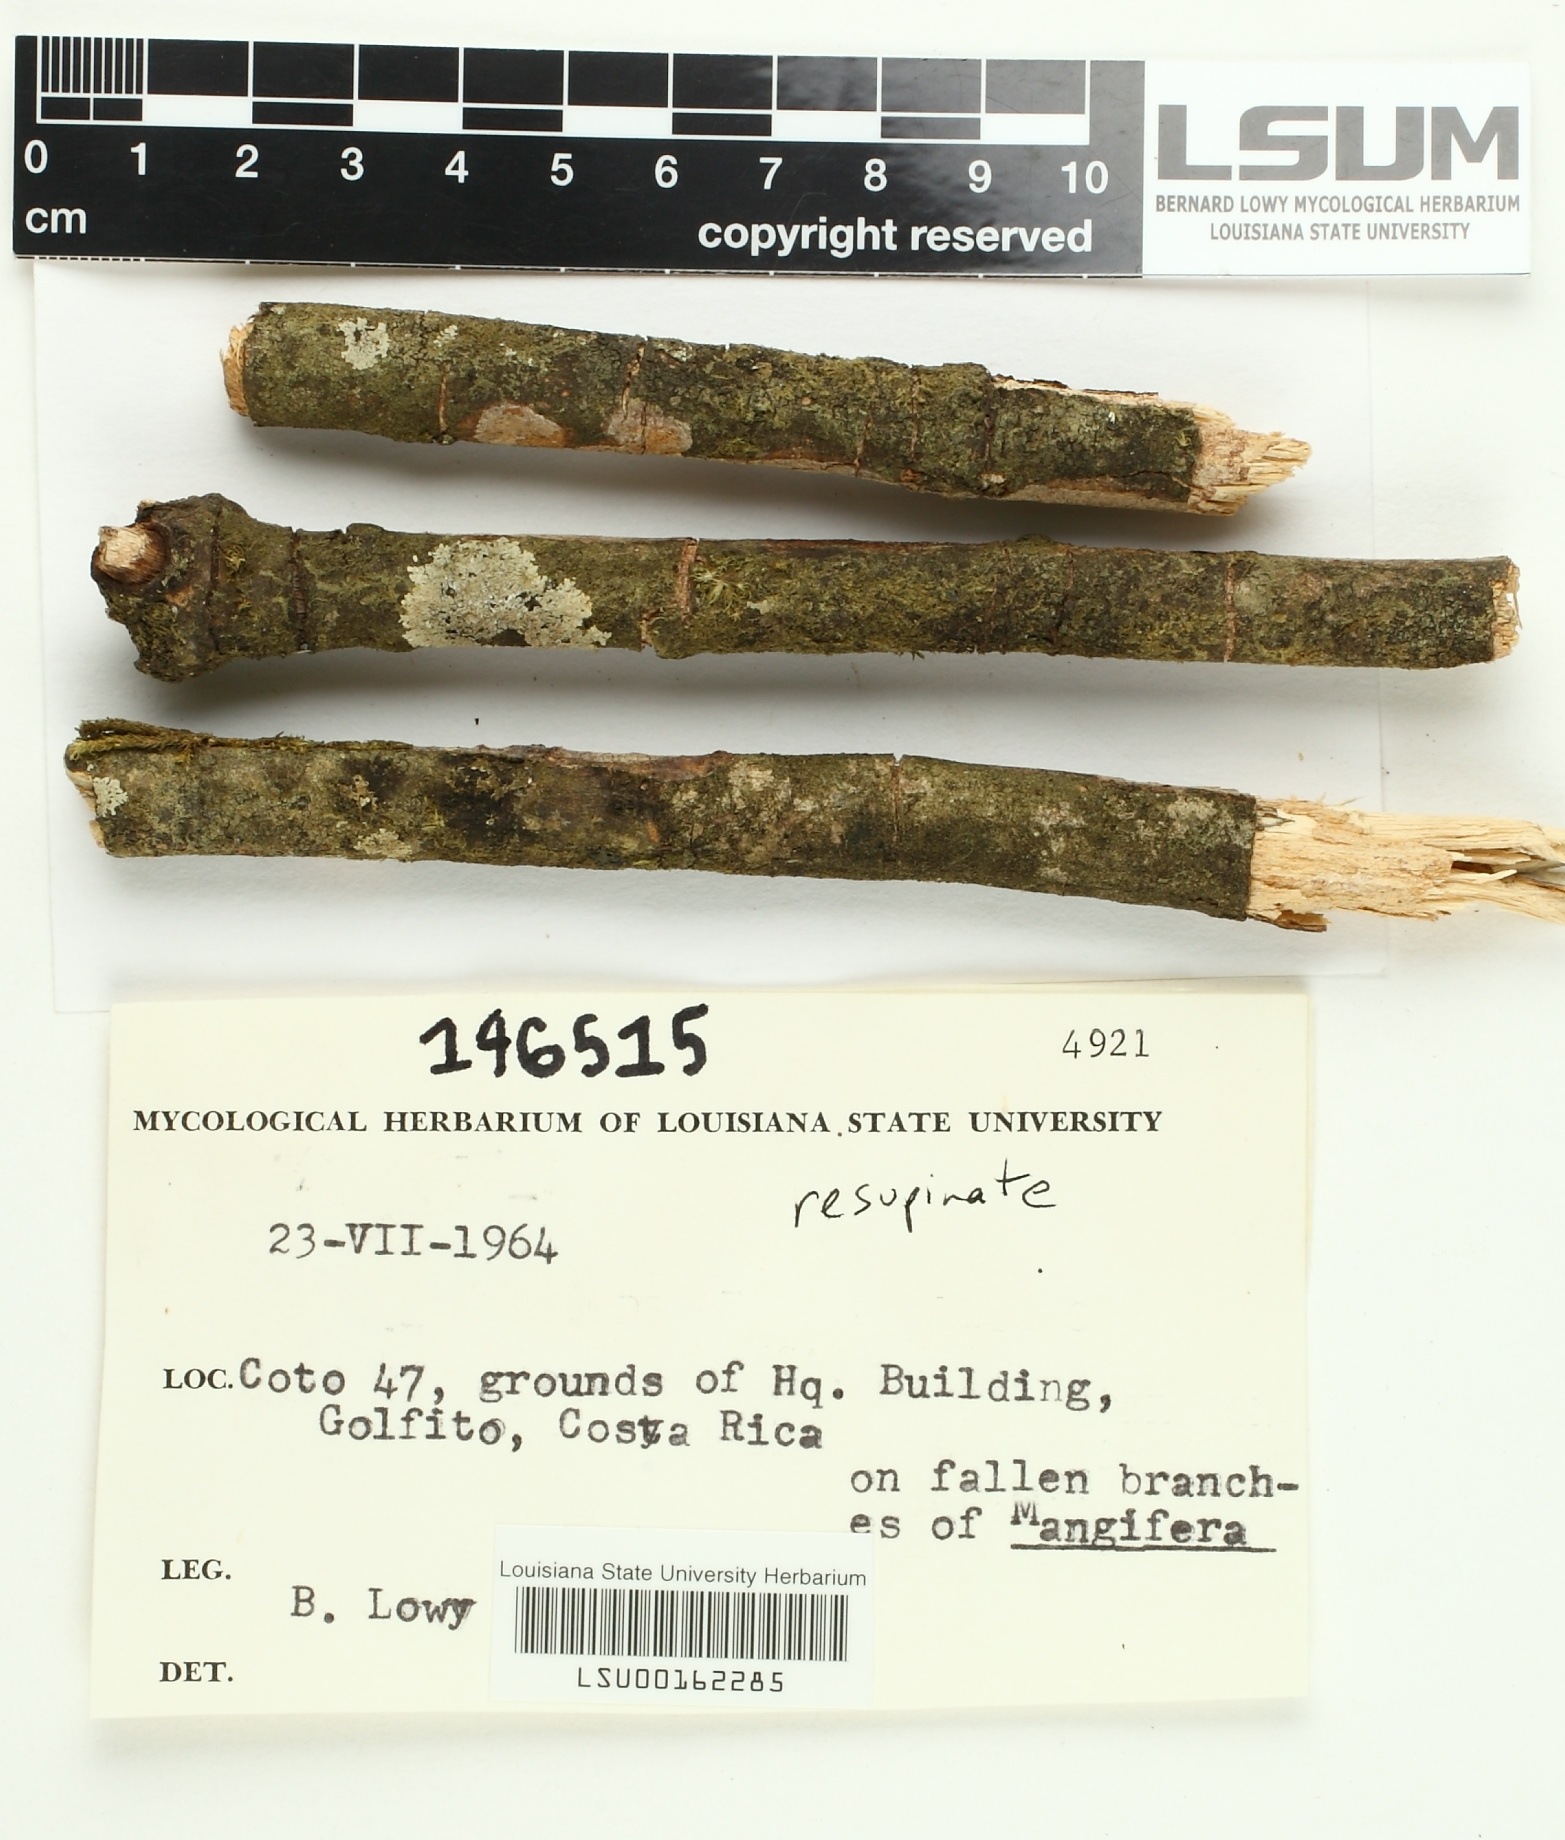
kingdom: Fungi
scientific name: Fungi
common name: Fungi
